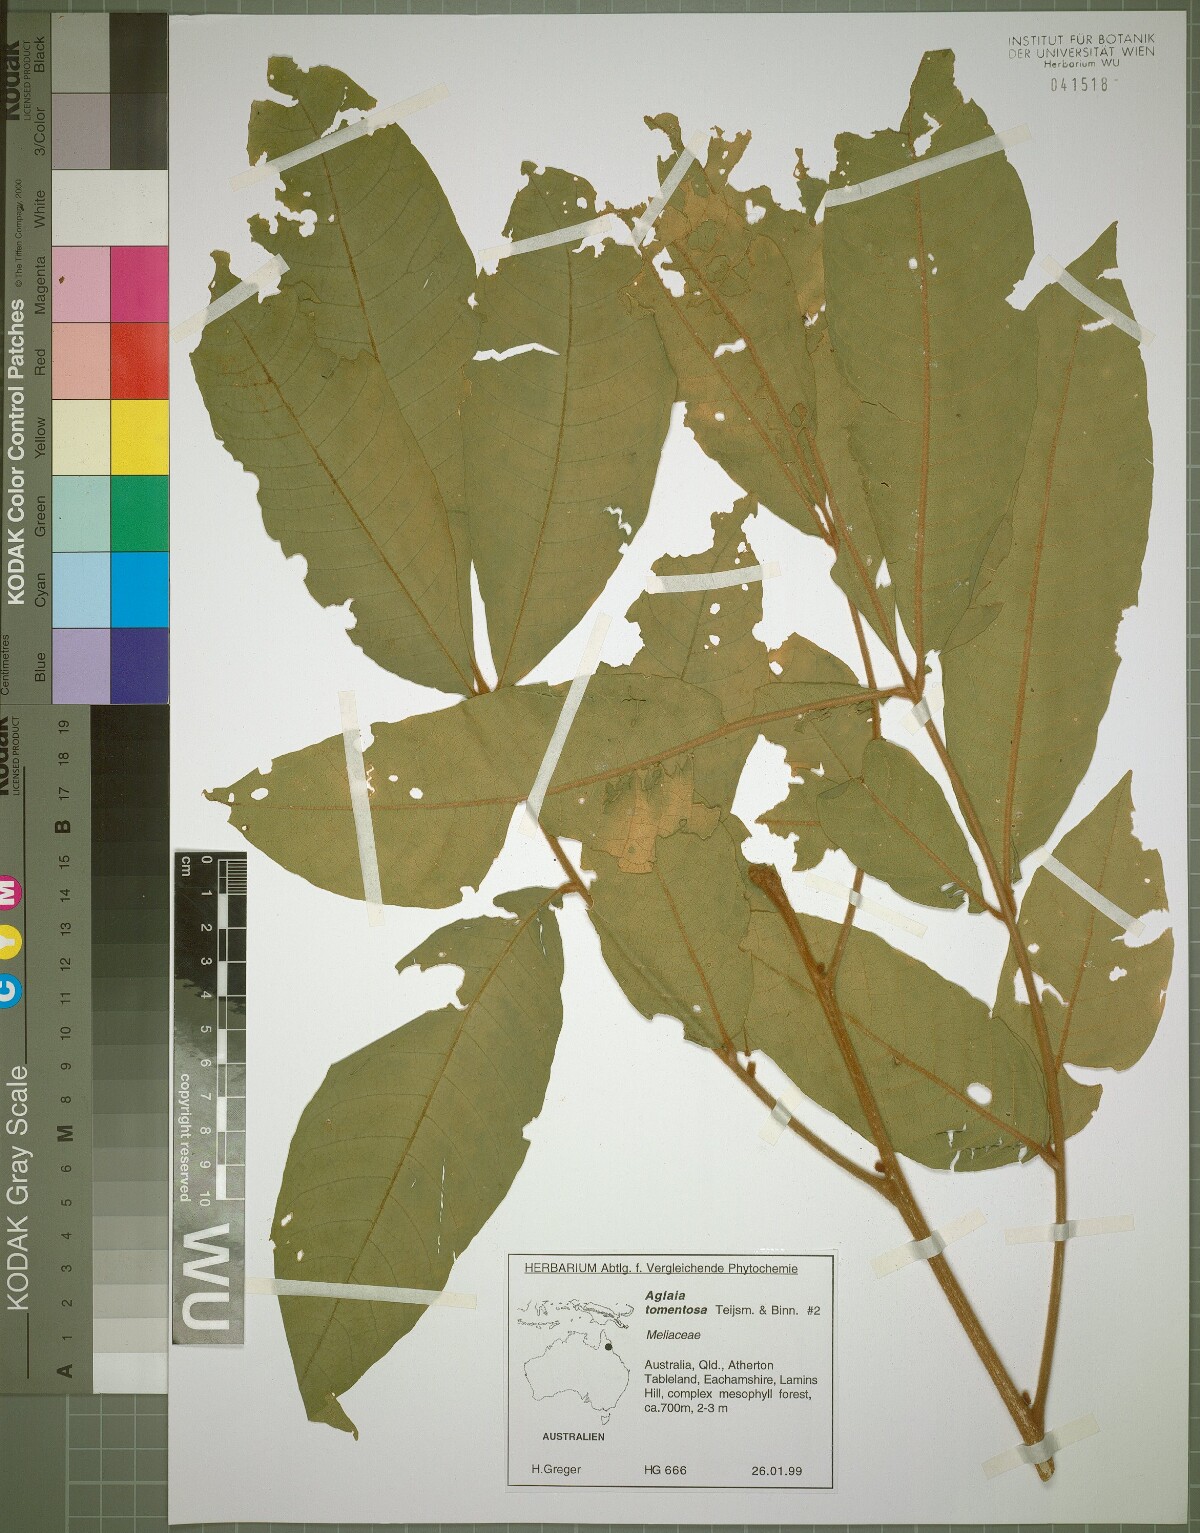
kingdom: Plantae
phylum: Tracheophyta
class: Magnoliopsida
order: Sapindales
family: Meliaceae
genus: Aglaia
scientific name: Aglaia tomentosa
